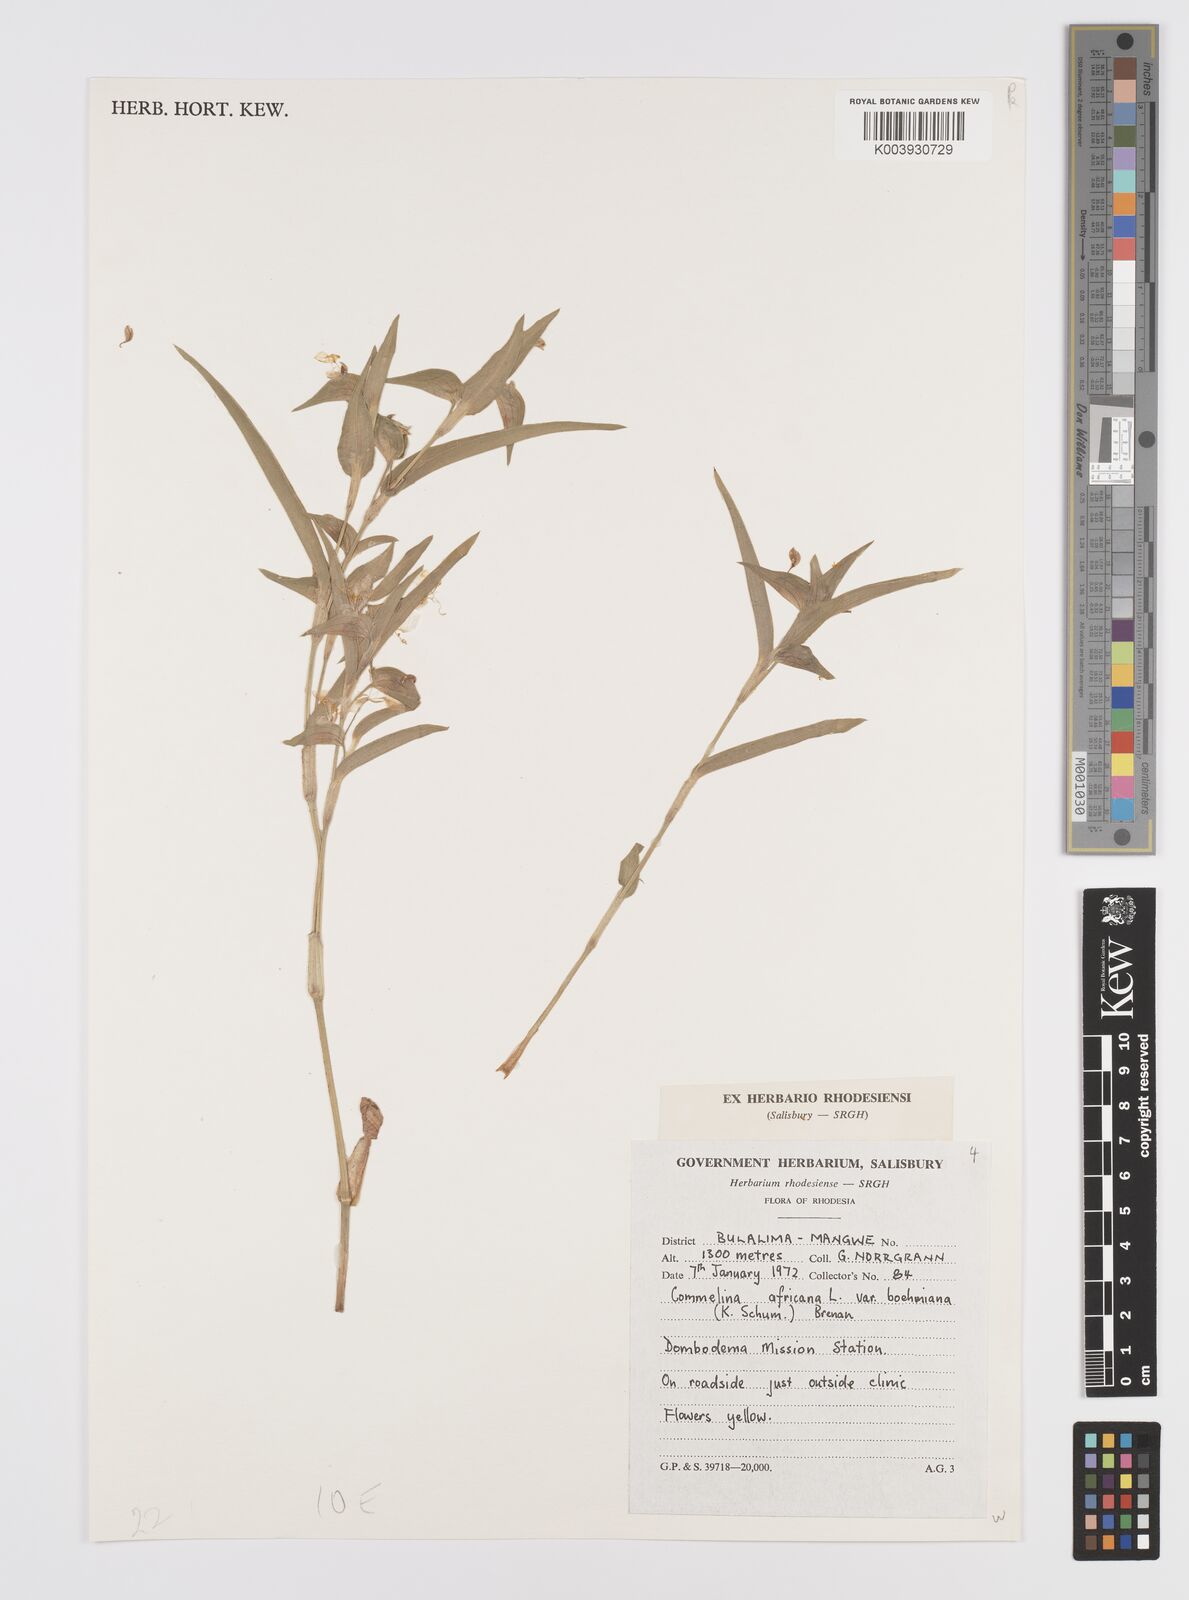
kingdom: Plantae
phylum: Tracheophyta
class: Liliopsida
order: Commelinales
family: Commelinaceae
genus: Commelina
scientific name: Commelina africana
